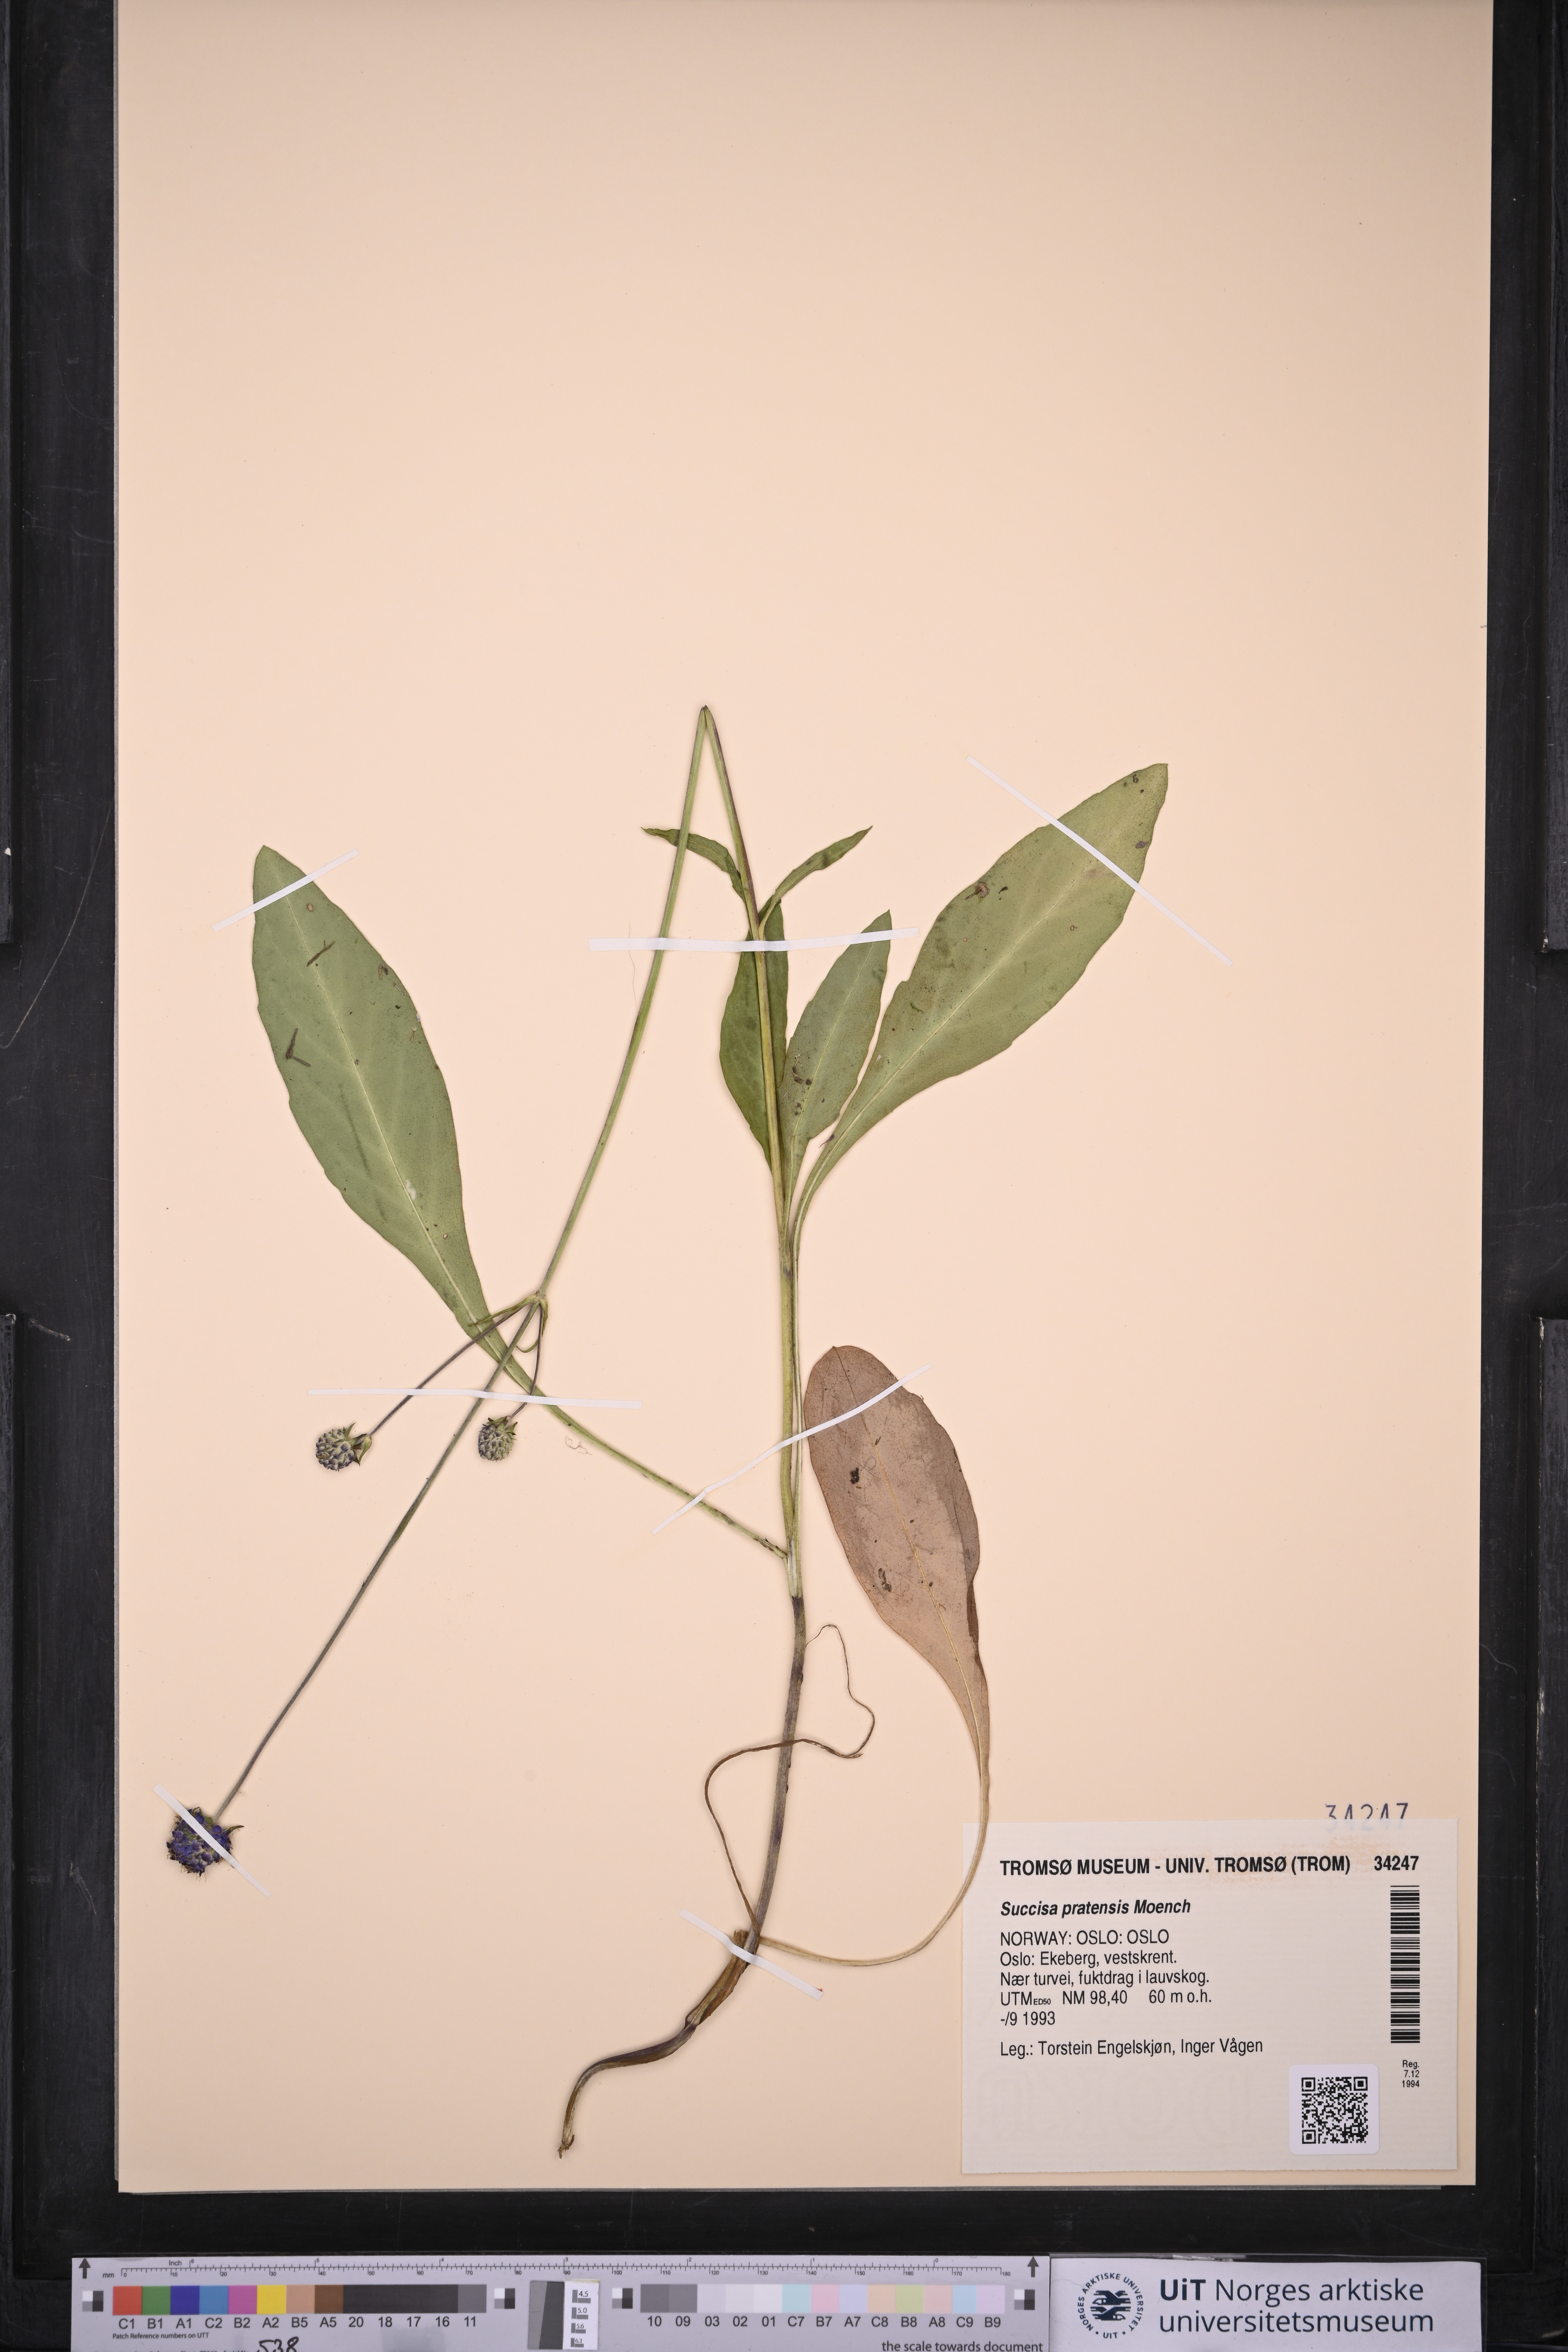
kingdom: Plantae
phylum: Tracheophyta
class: Magnoliopsida
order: Dipsacales
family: Caprifoliaceae
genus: Succisa
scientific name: Succisa pratensis
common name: Devil's-bit
